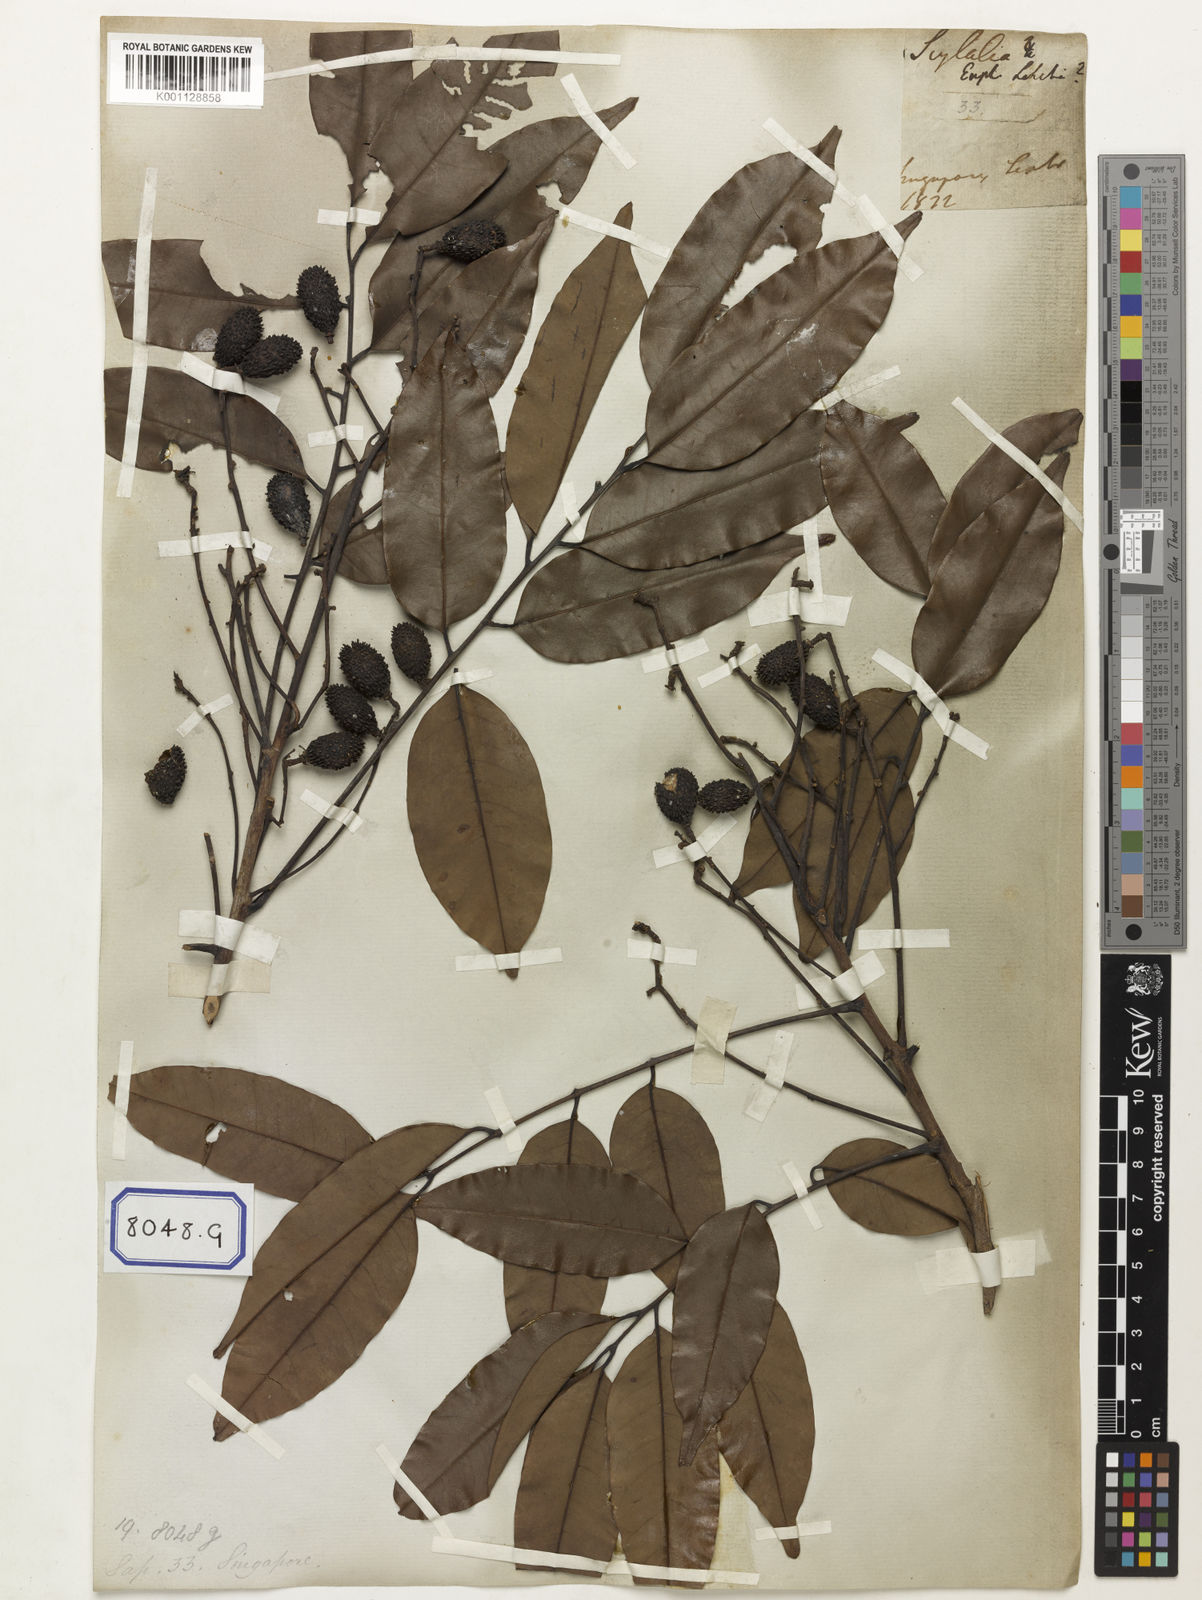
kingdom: Animalia
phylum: Arthropoda
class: Insecta
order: Coleoptera
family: Scarabaeidae
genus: Euphoria
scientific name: Euphoria
